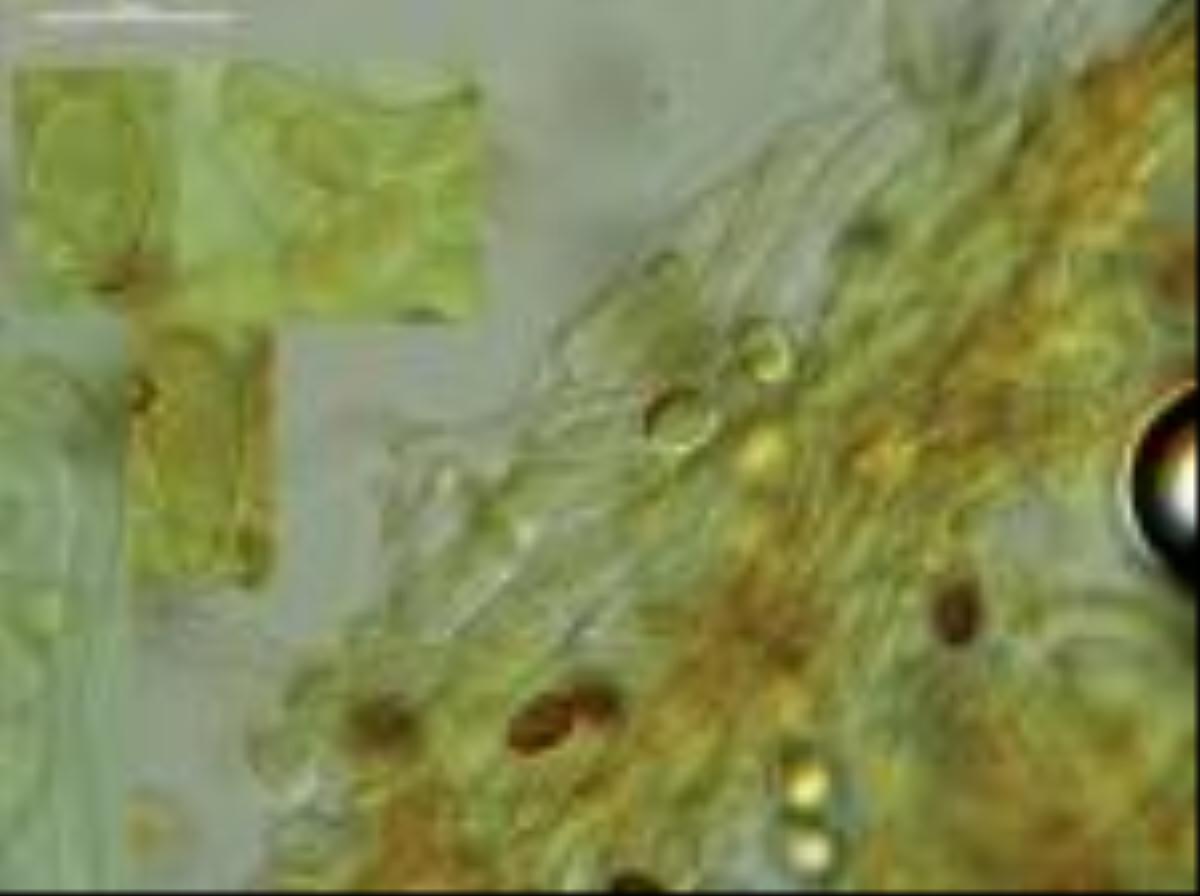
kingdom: Fungi
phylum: Basidiomycota
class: Agaricomycetes
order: Agaricales
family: Agaricaceae
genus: Agaricus
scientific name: Agaricus
